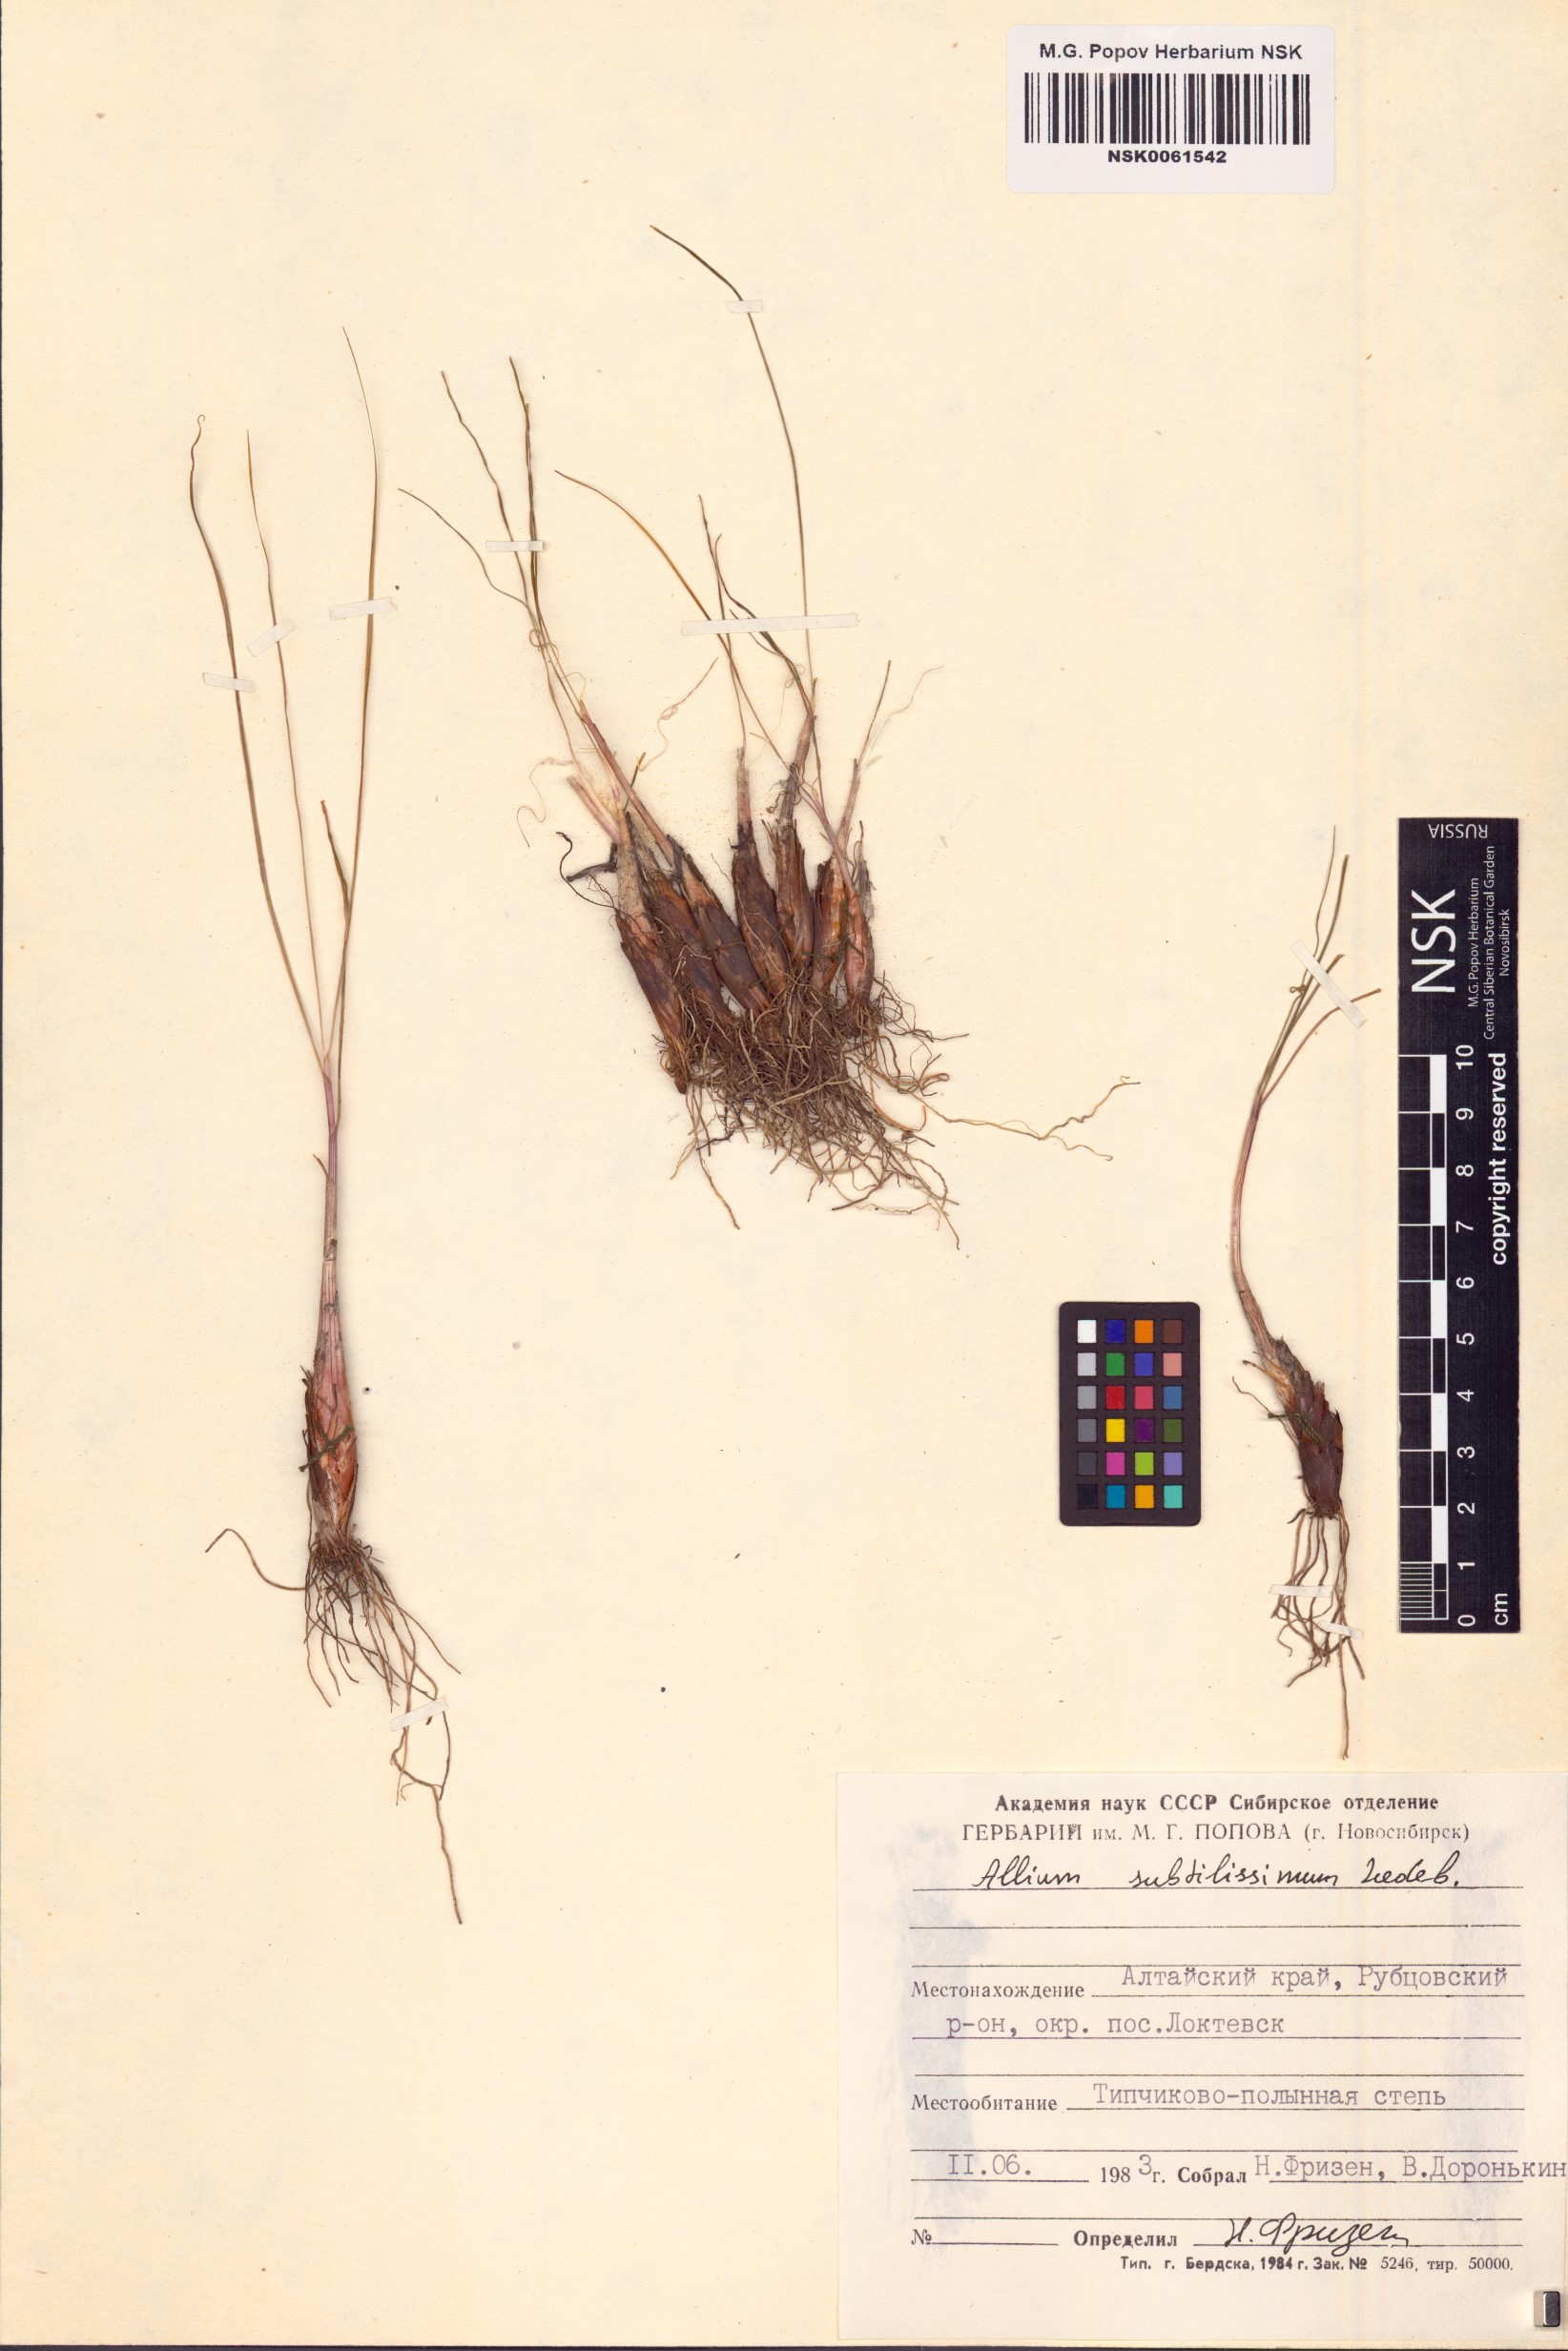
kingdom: Plantae
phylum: Tracheophyta
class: Liliopsida
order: Asparagales
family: Amaryllidaceae
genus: Allium
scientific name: Allium subtilissimum
